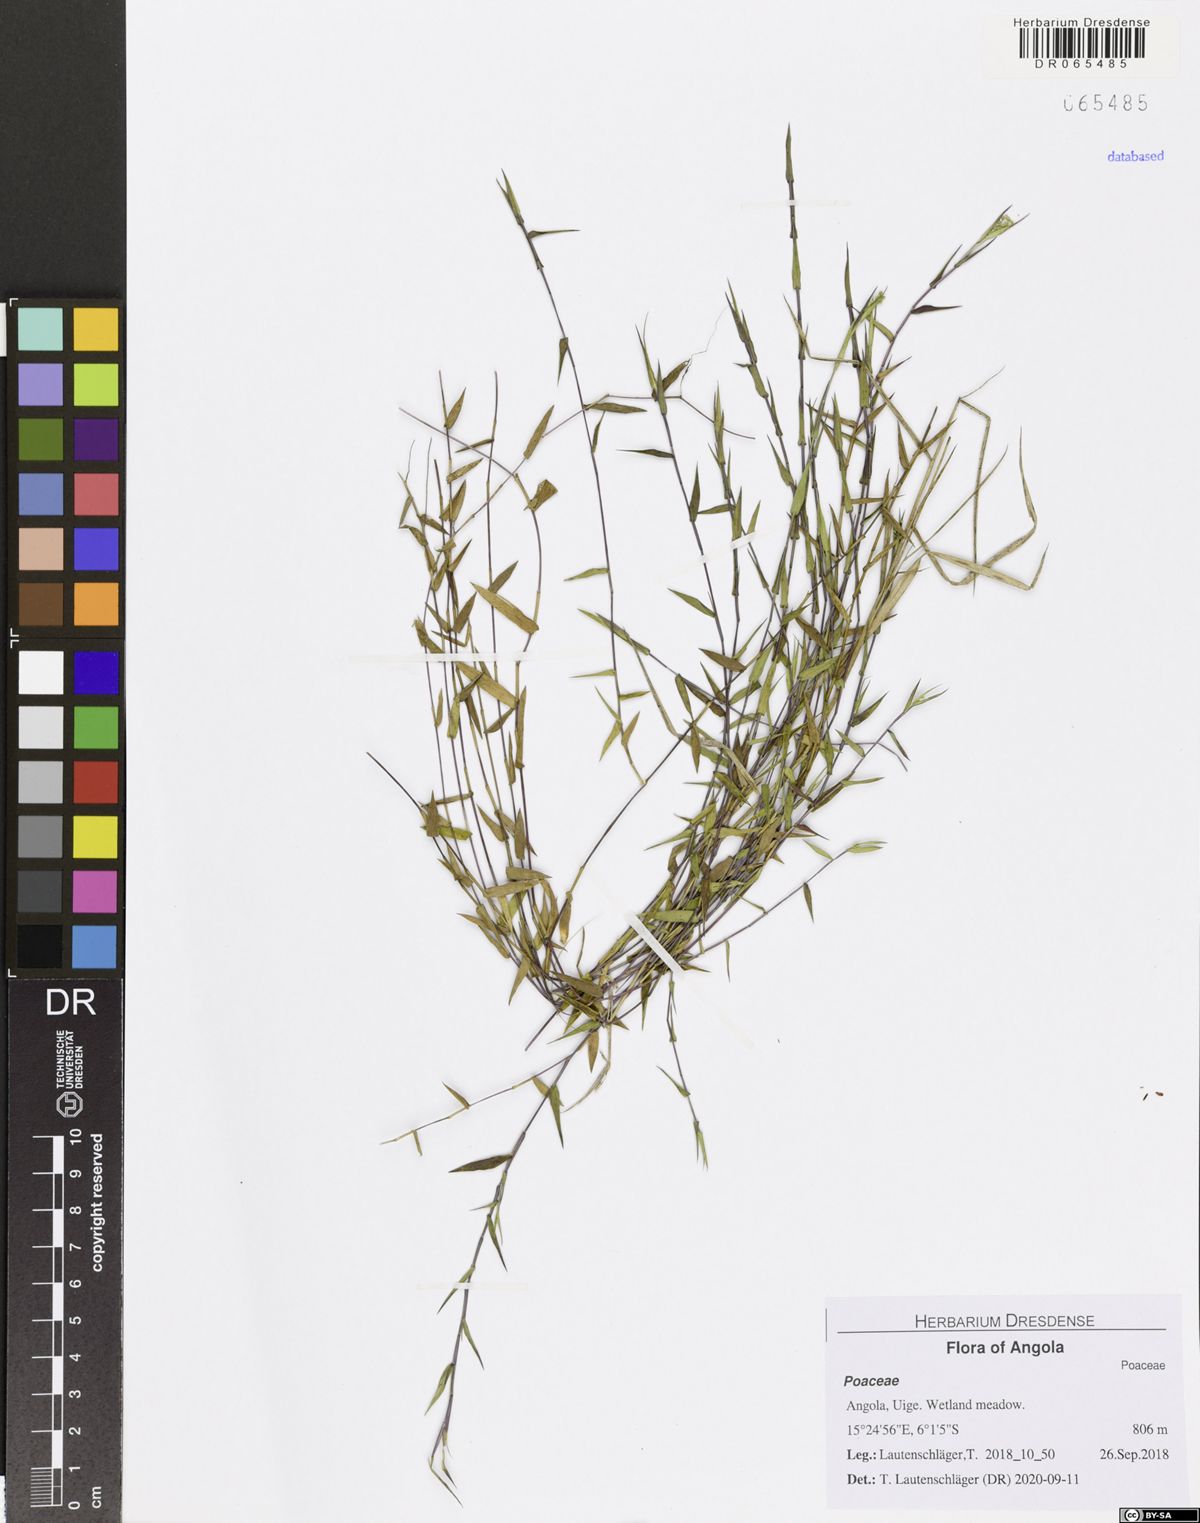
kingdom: Plantae
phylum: Tracheophyta
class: Liliopsida
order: Poales
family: Poaceae
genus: Panicum
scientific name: Panicum
